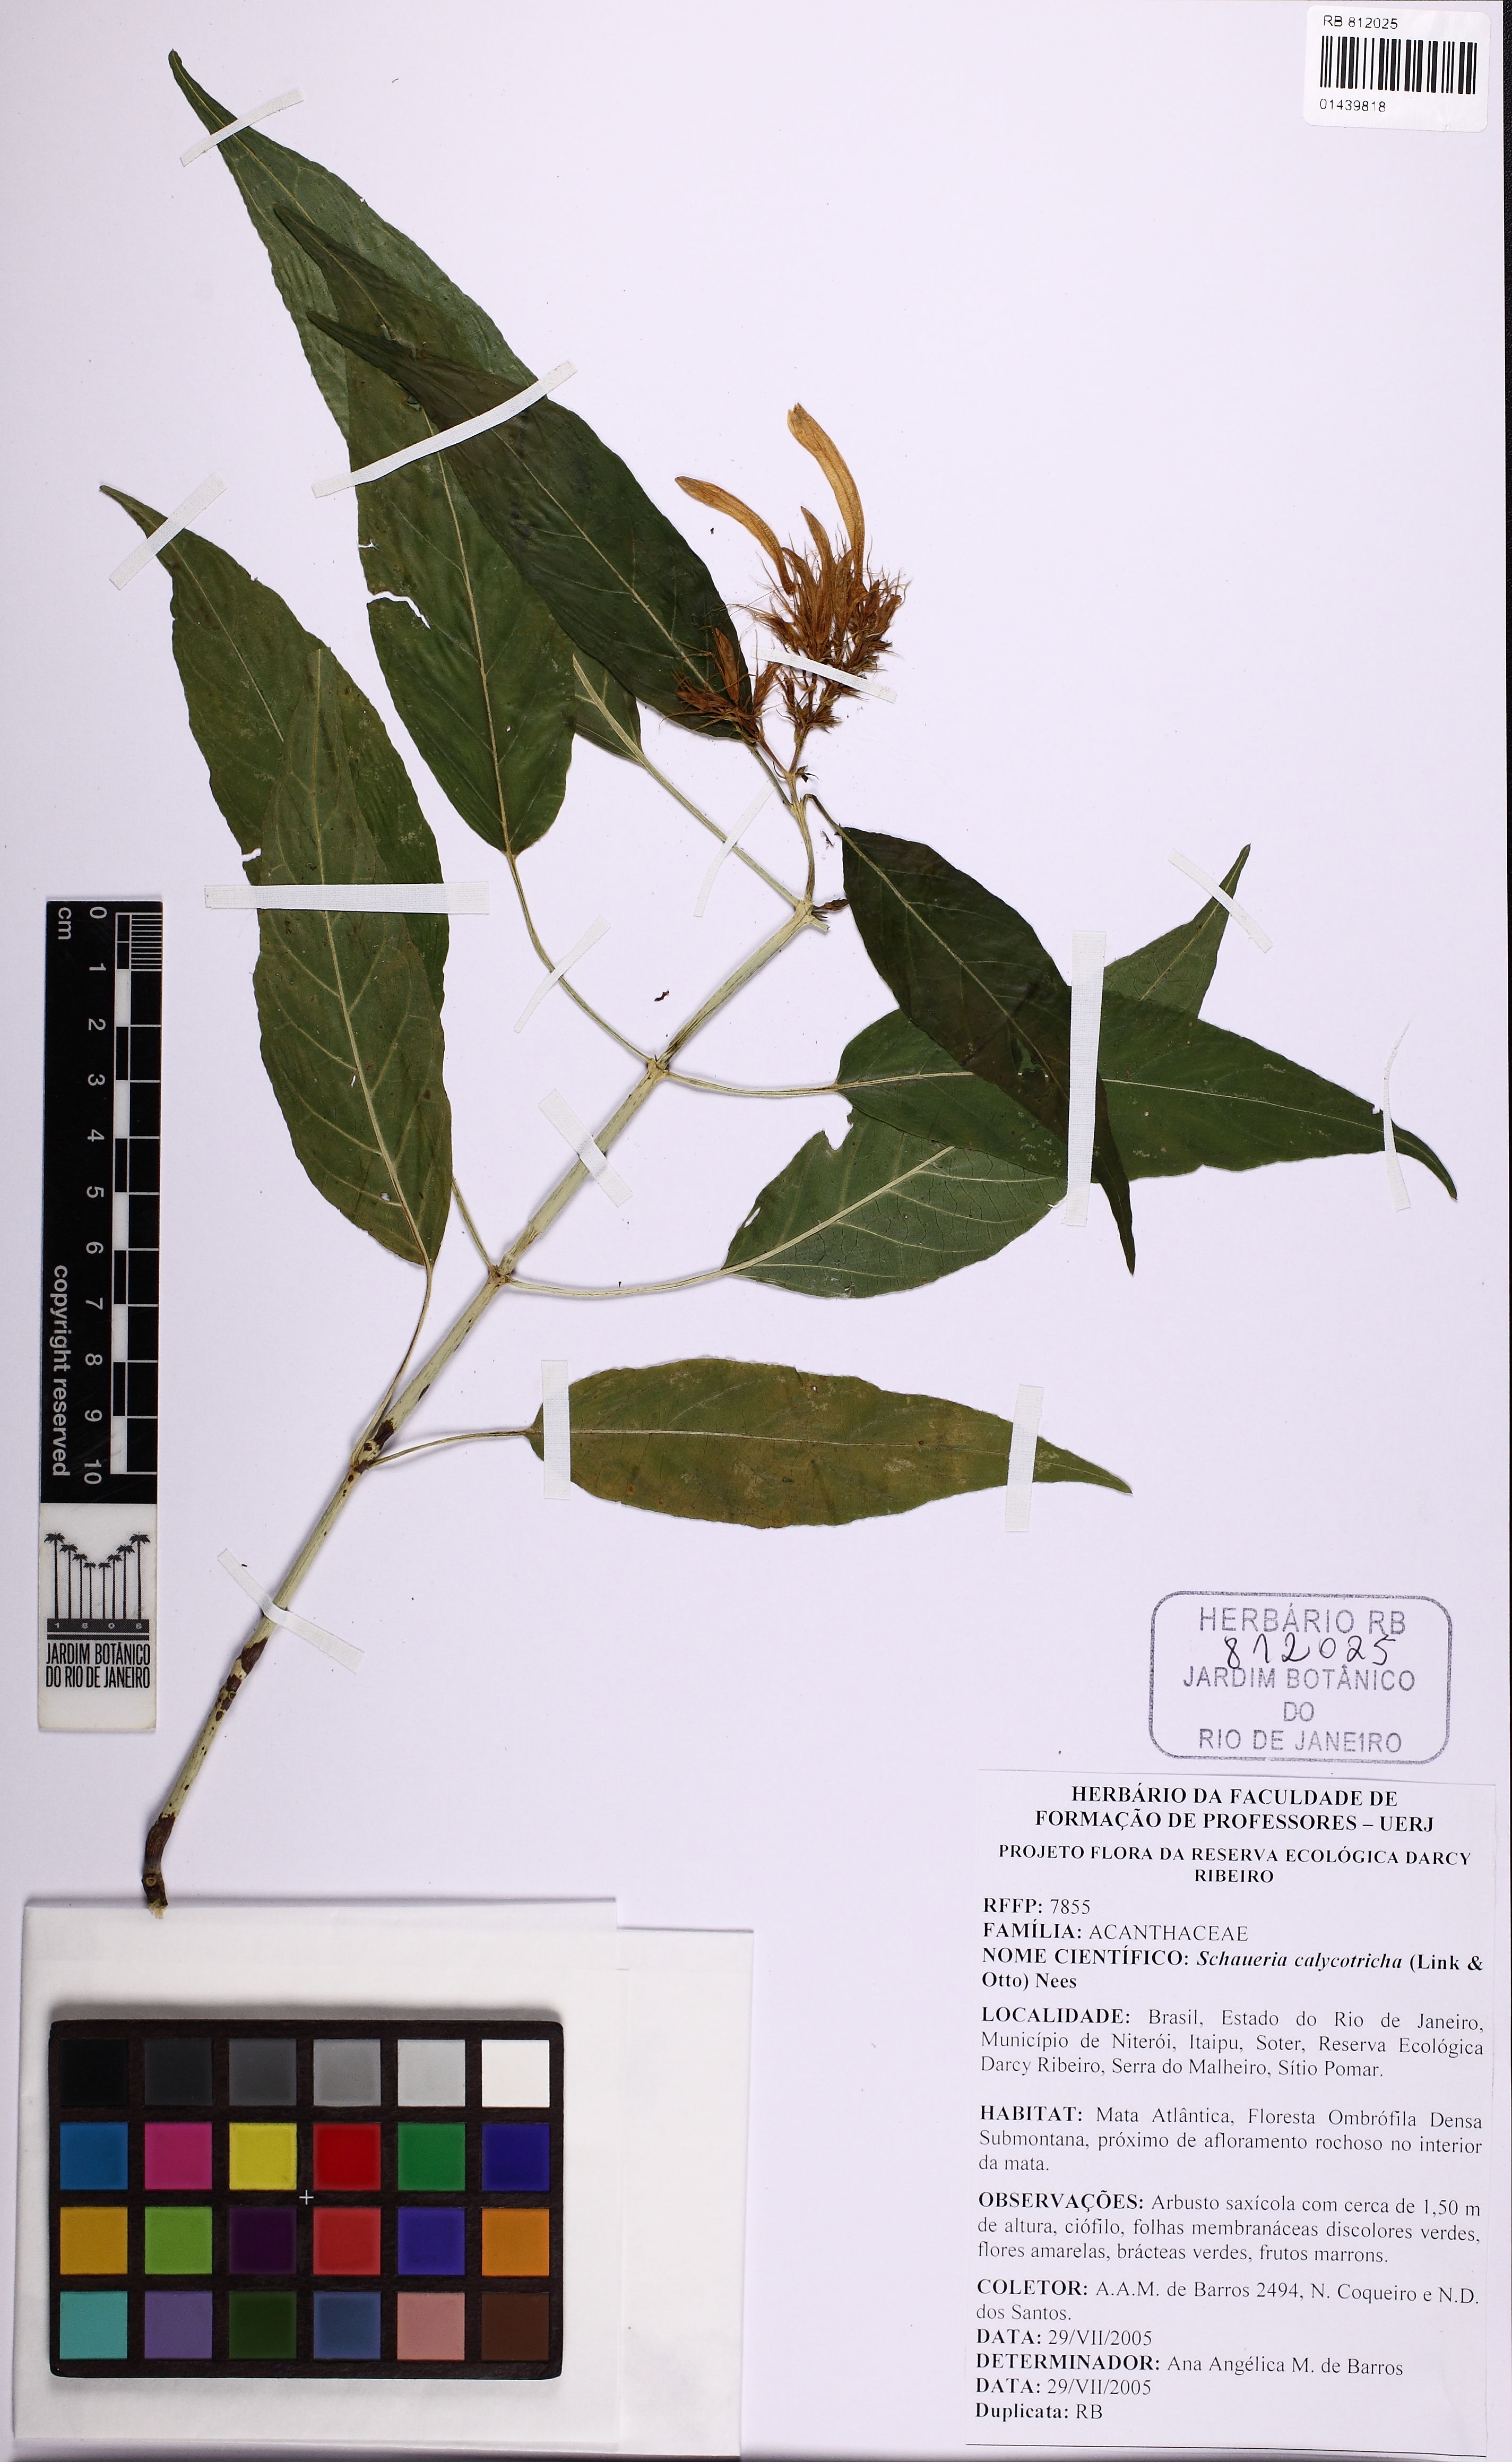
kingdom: Plantae
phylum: Tracheophyta
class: Magnoliopsida
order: Lamiales
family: Acanthaceae
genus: Schaueria
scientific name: Schaueria calytricha
